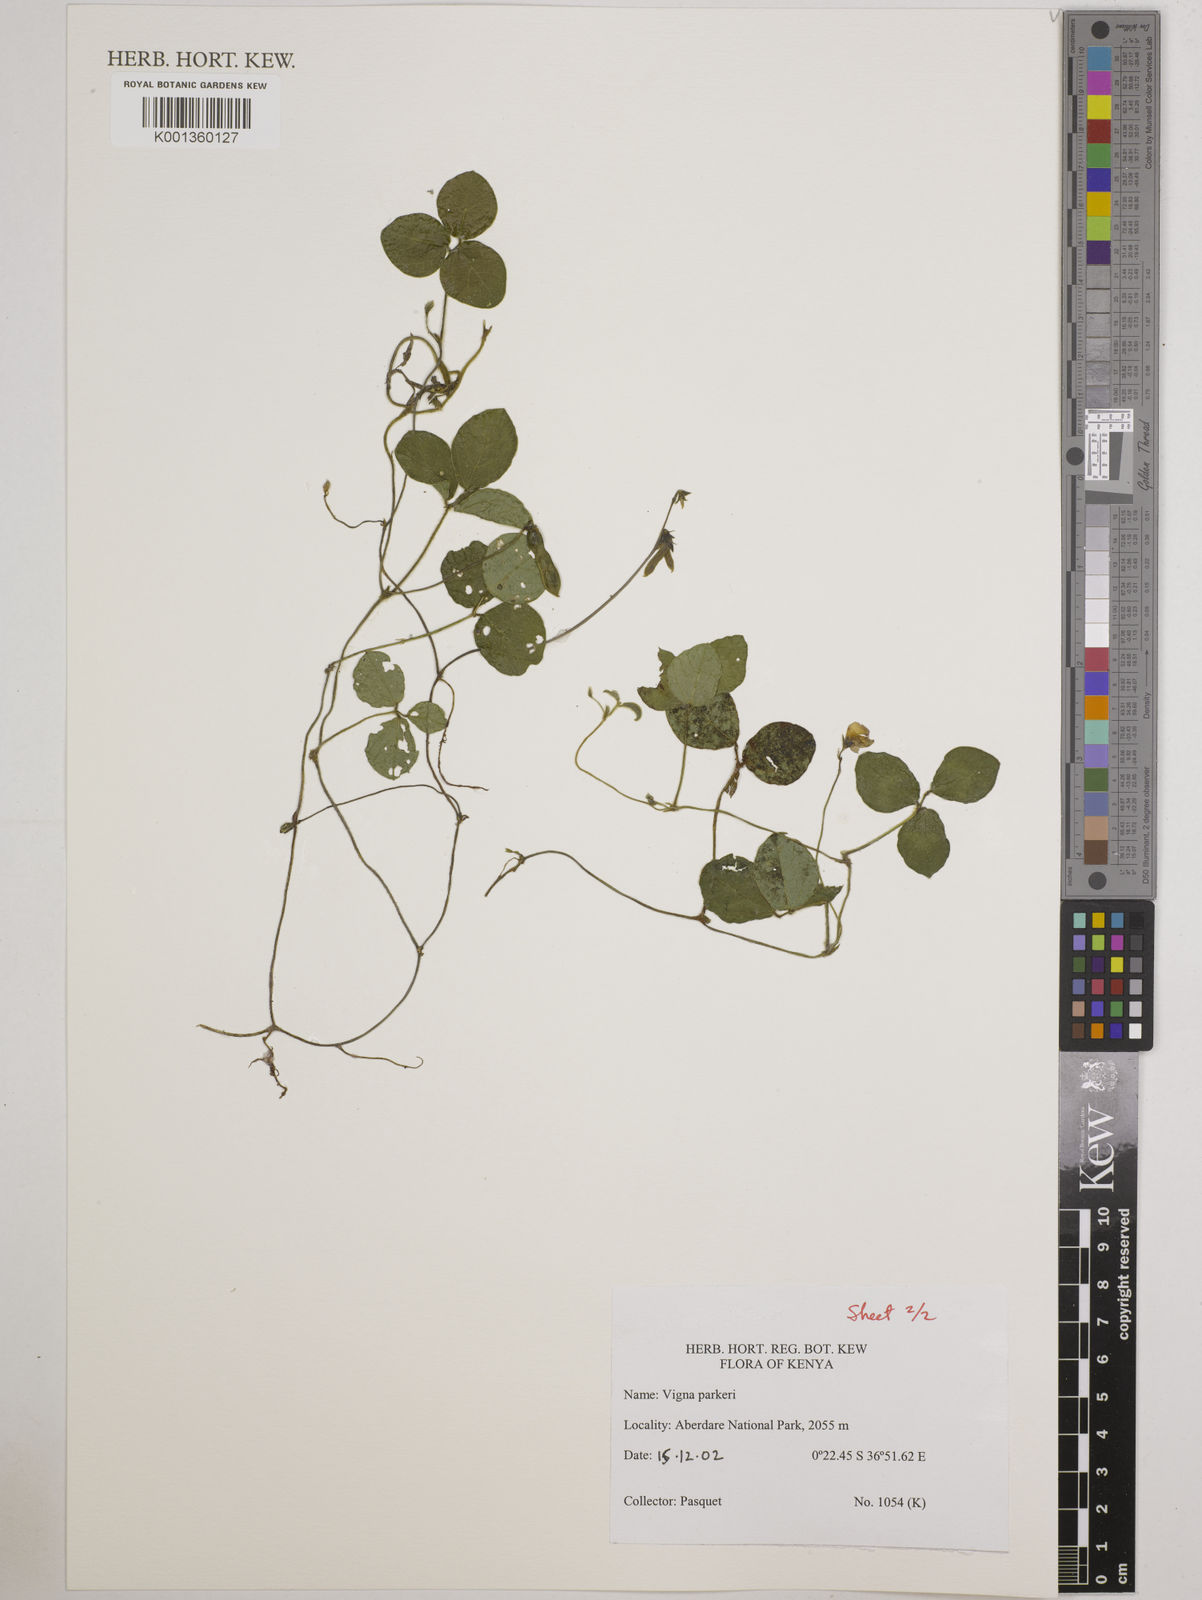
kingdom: Plantae
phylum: Tracheophyta
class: Magnoliopsida
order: Fabales
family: Fabaceae
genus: Vigna
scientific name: Vigna parkeri
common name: Creeping vigna
